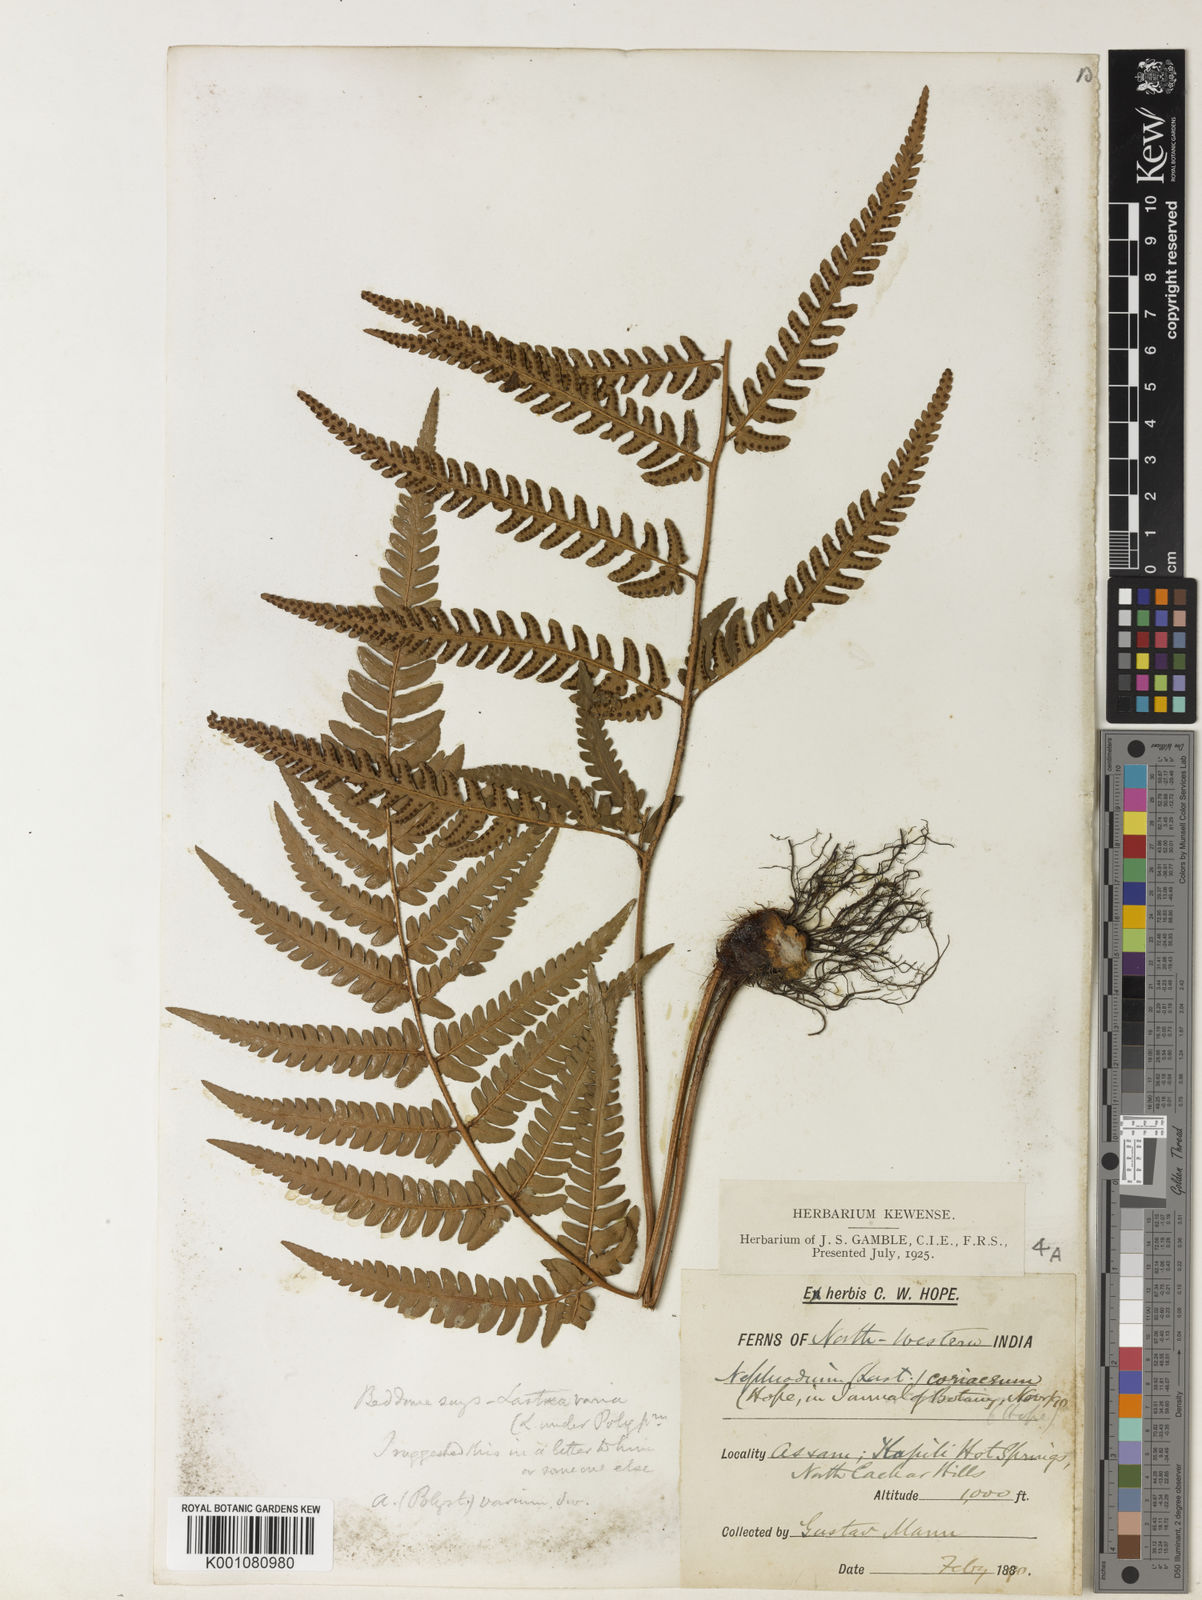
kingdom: Plantae
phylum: Tracheophyta
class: Polypodiopsida
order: Polypodiales
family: Dryopteridaceae
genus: Dryopteris
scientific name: Dryopteris varia
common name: Japanese holly fern
